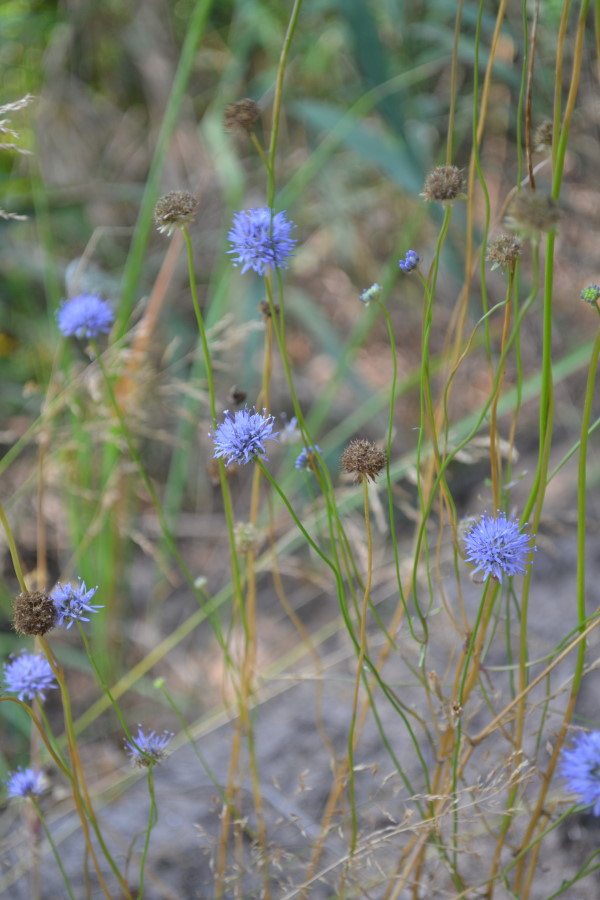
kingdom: Plantae
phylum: Tracheophyta
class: Magnoliopsida
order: Asterales
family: Campanulaceae
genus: Jasione
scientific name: Jasione montana
